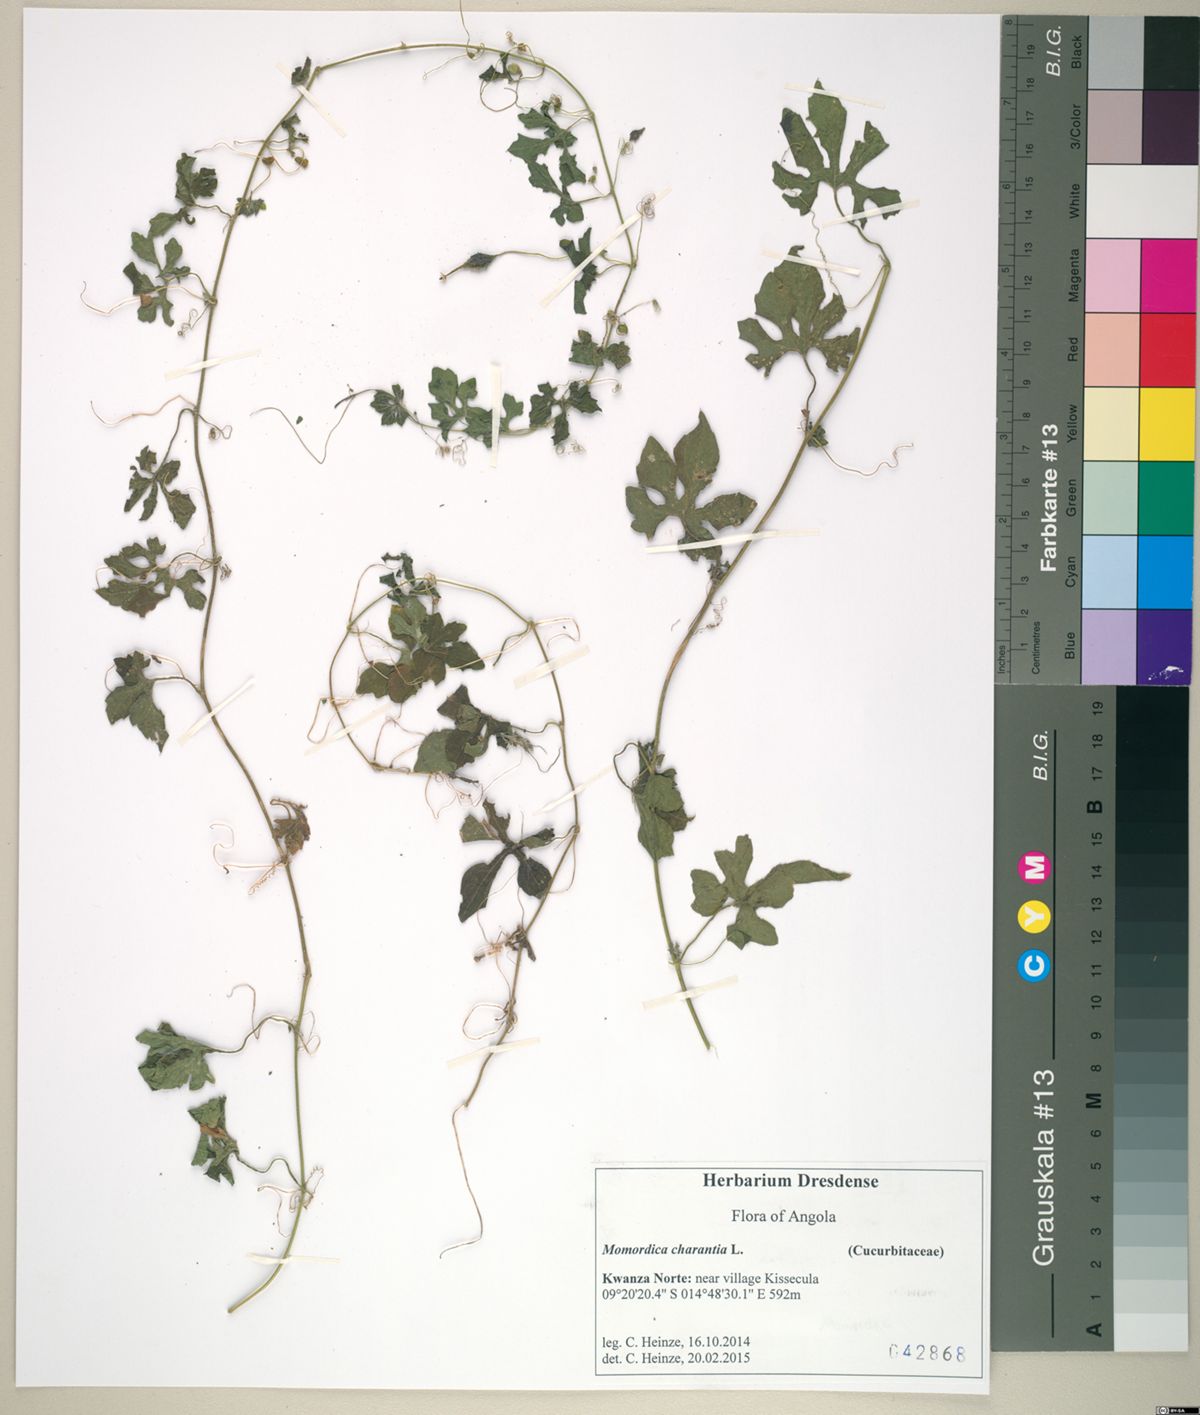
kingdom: Plantae
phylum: Tracheophyta
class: Magnoliopsida
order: Cucurbitales
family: Cucurbitaceae
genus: Momordica
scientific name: Momordica charantia
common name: Balsampear
